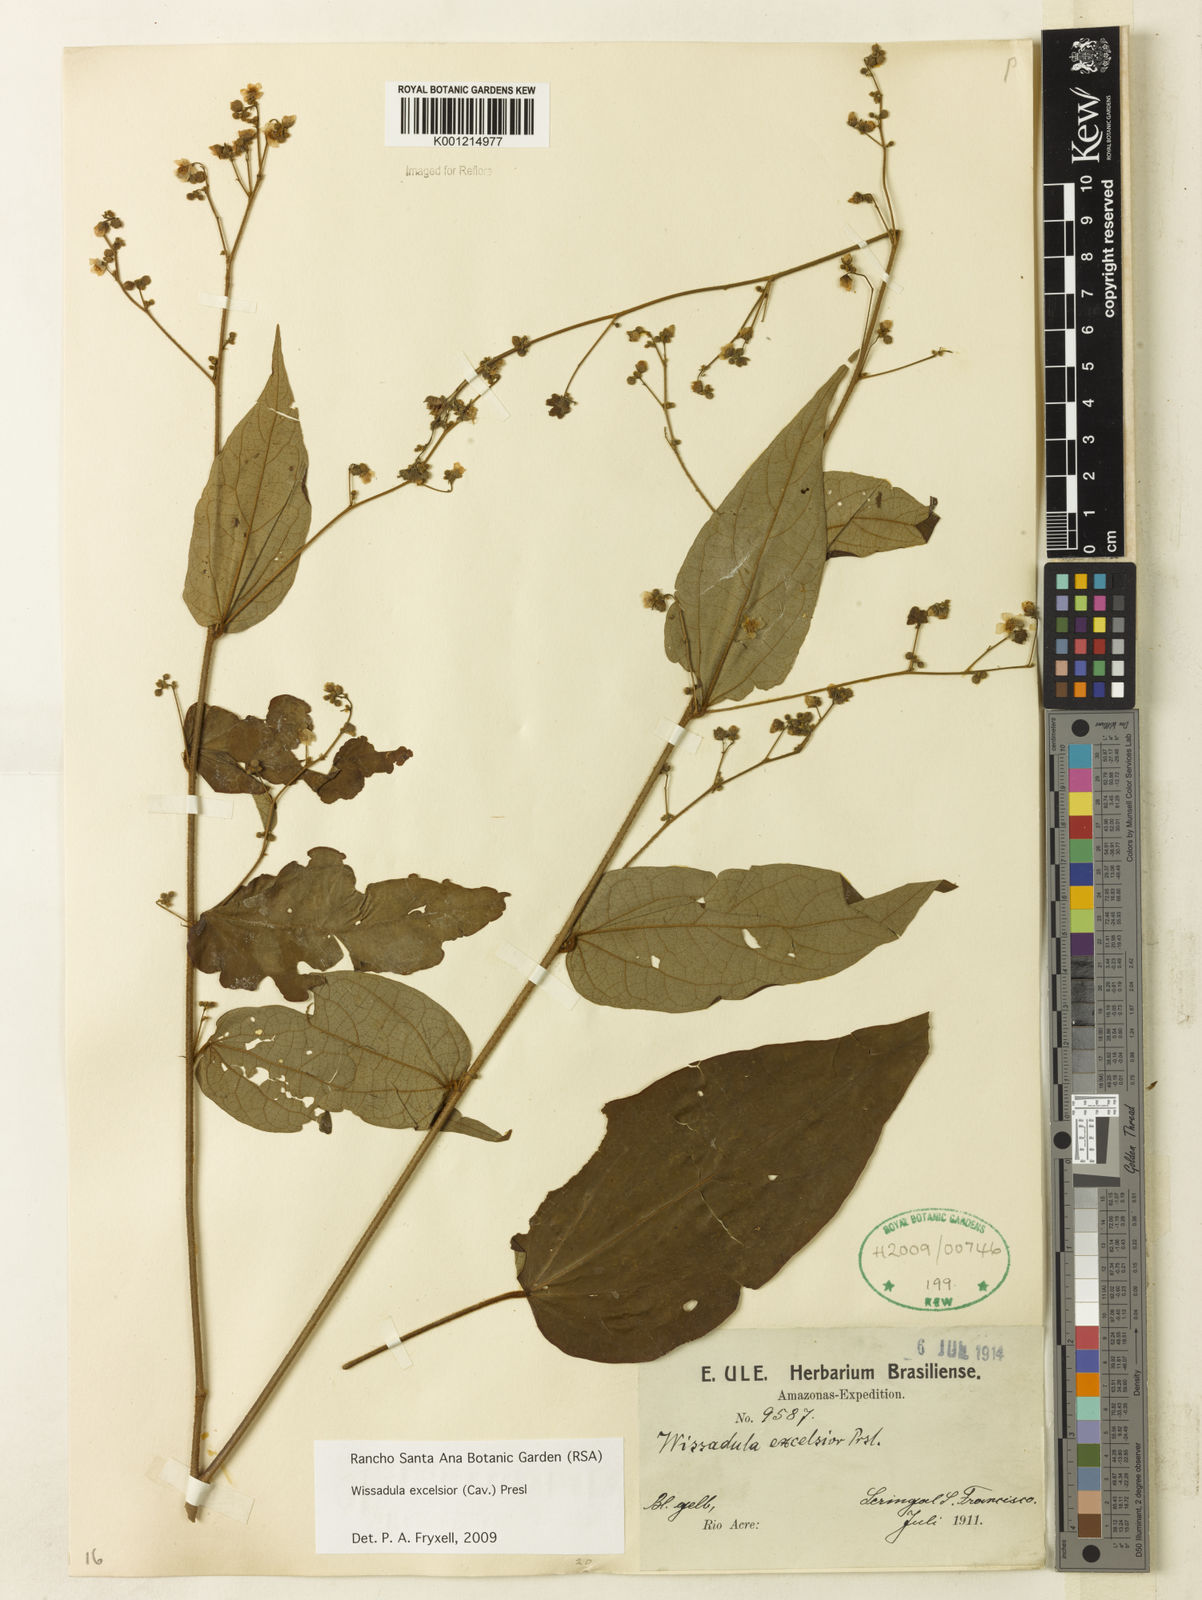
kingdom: Plantae
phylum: Tracheophyta
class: Magnoliopsida
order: Malvales
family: Malvaceae
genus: Wissadula
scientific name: Wissadula excelsior
